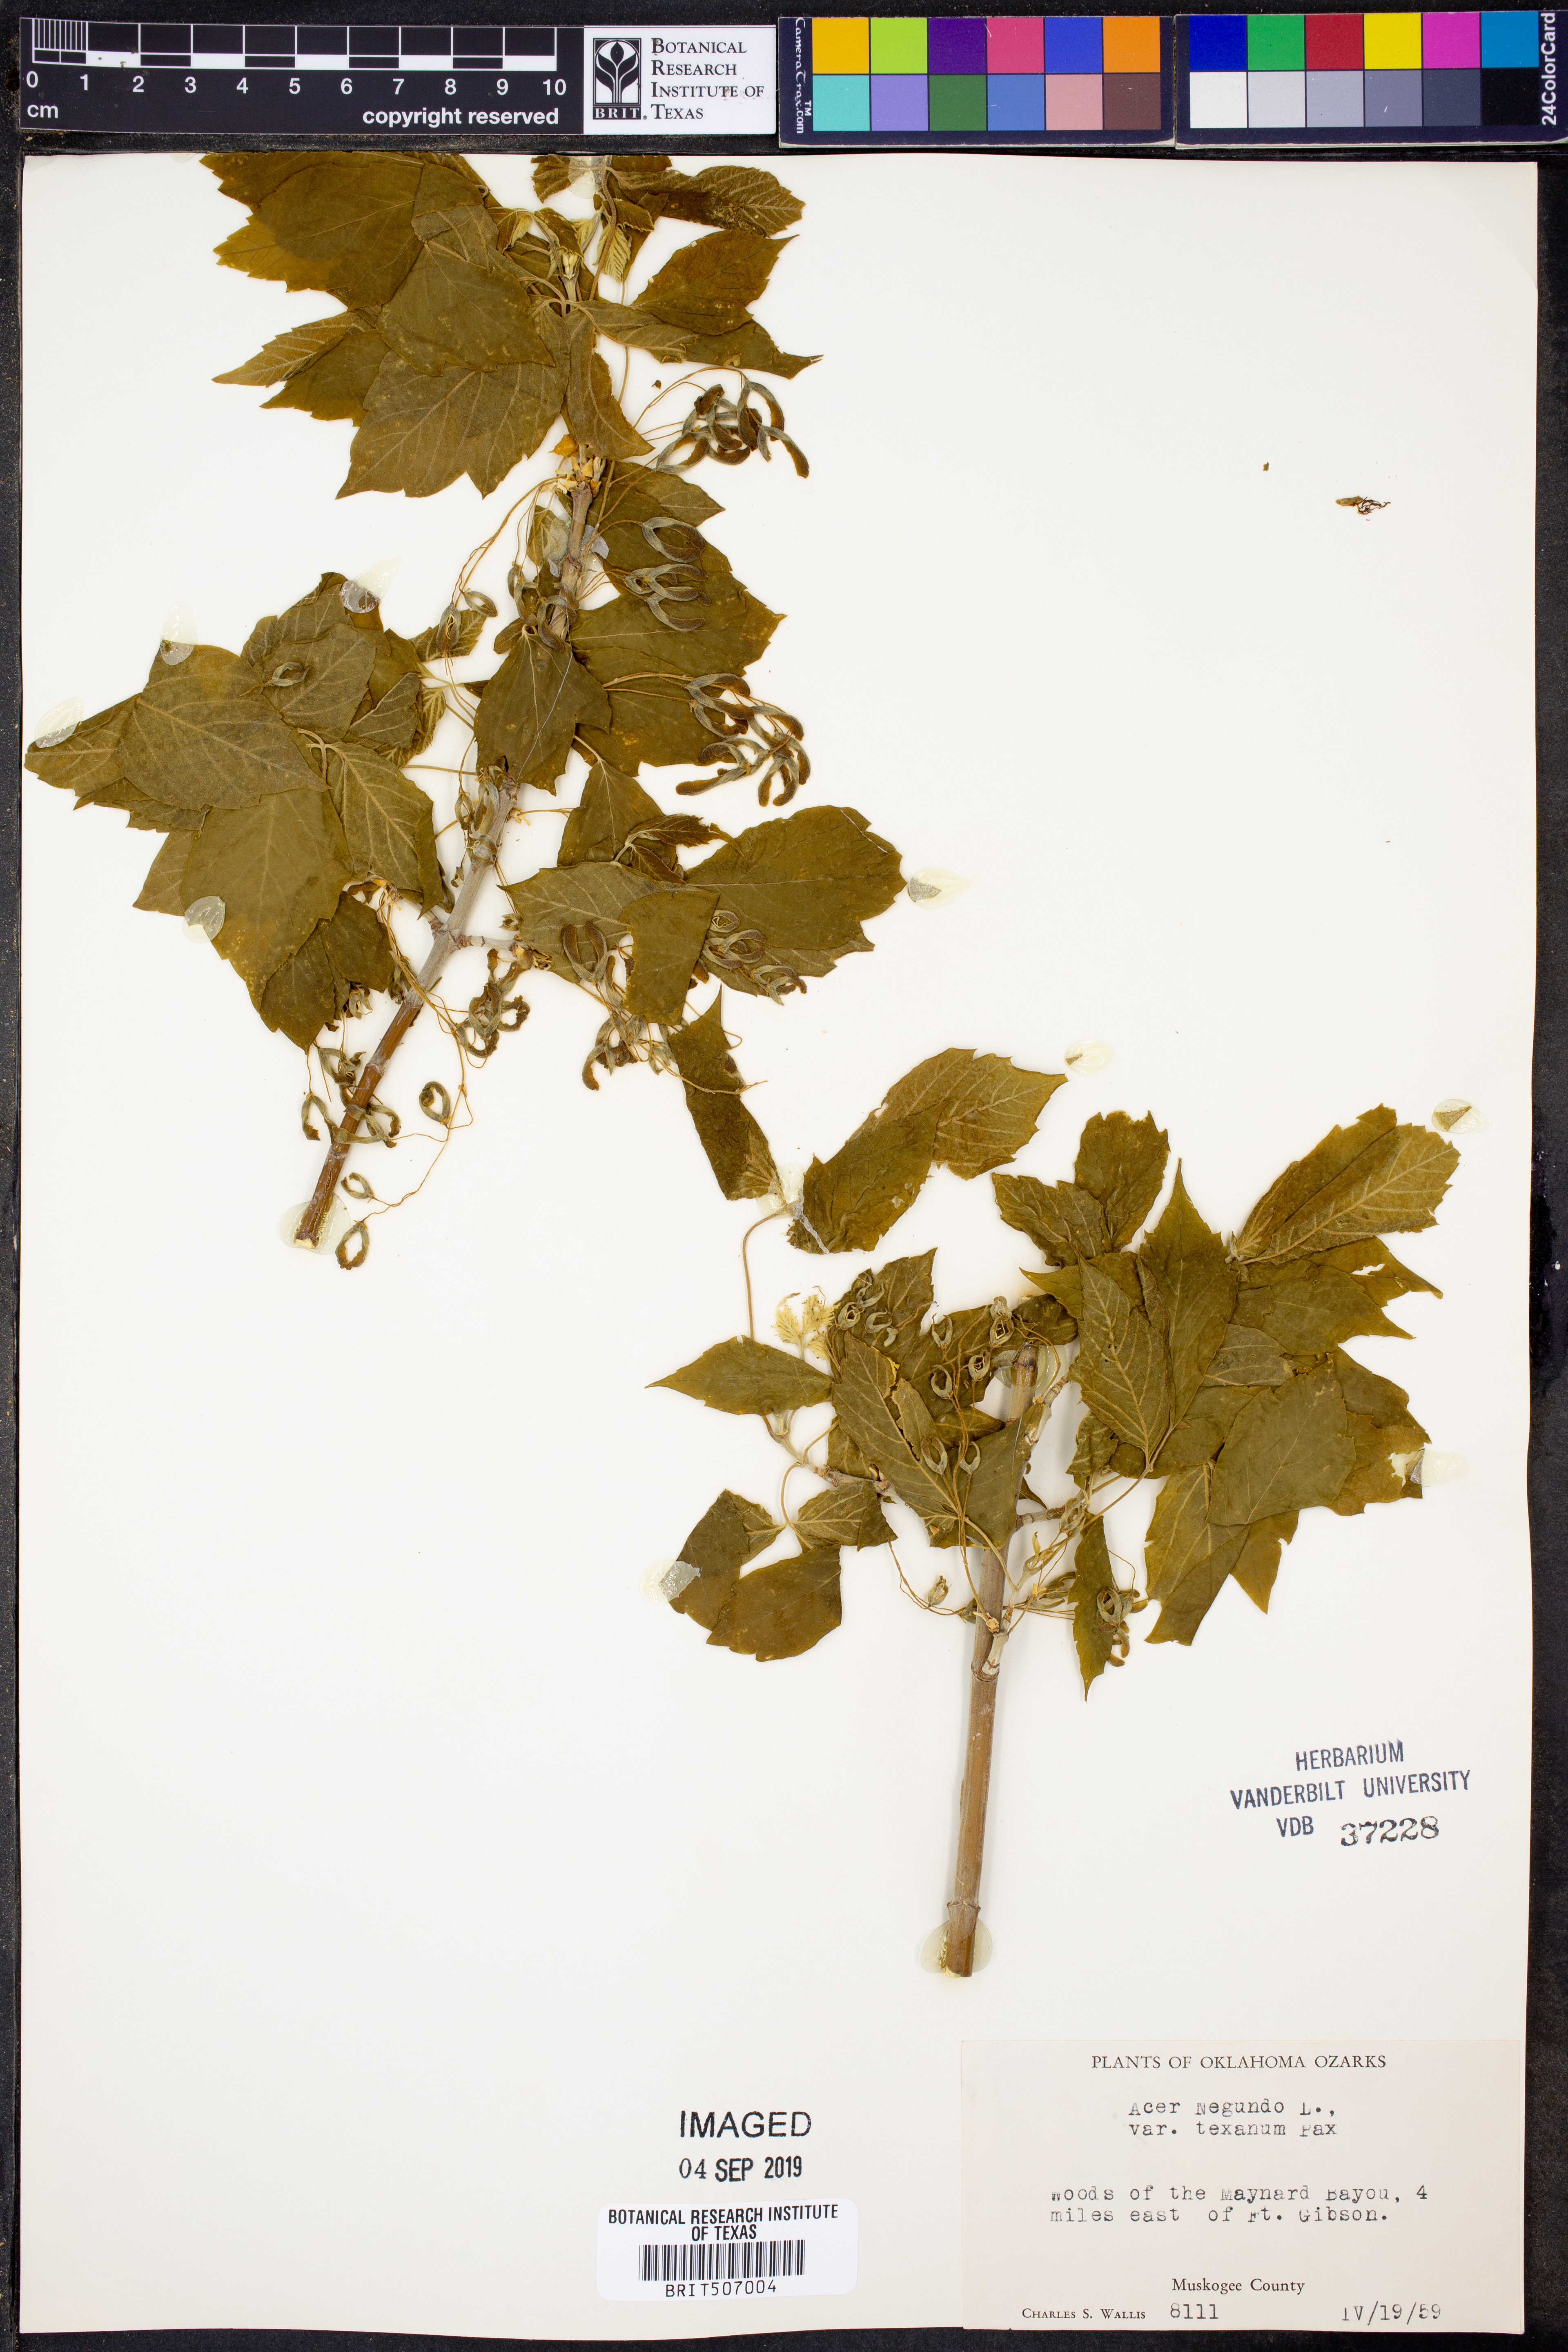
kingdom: Plantae
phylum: Tracheophyta
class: Magnoliopsida
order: Sapindales
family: Sapindaceae
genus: Acer
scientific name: Acer negundo
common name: Ashleaf maple
